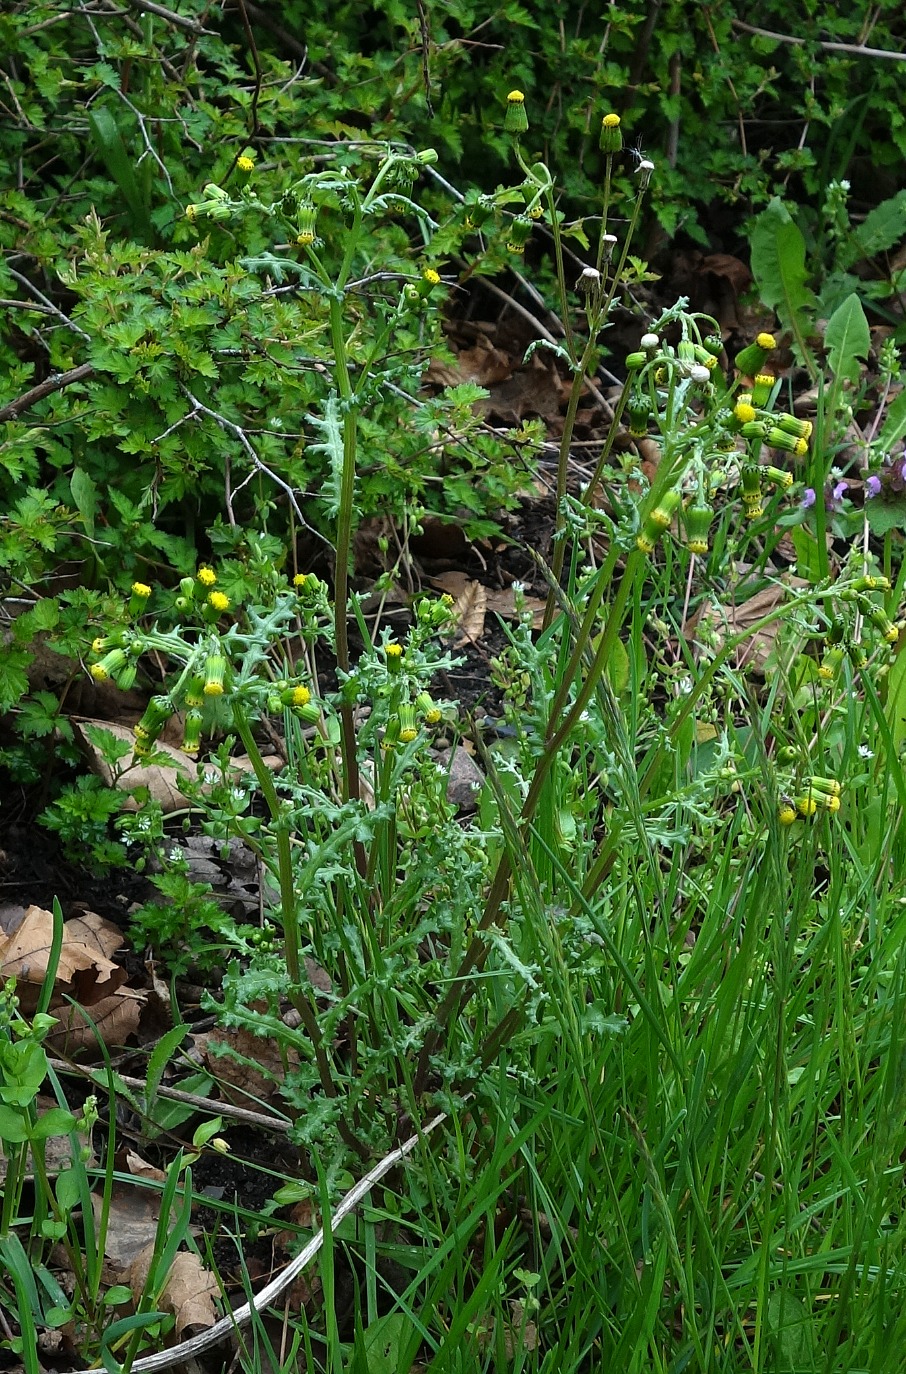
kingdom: Plantae
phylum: Tracheophyta
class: Magnoliopsida
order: Asterales
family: Asteraceae
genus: Senecio
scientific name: Senecio vulgaris
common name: Almindelig brandbæger
